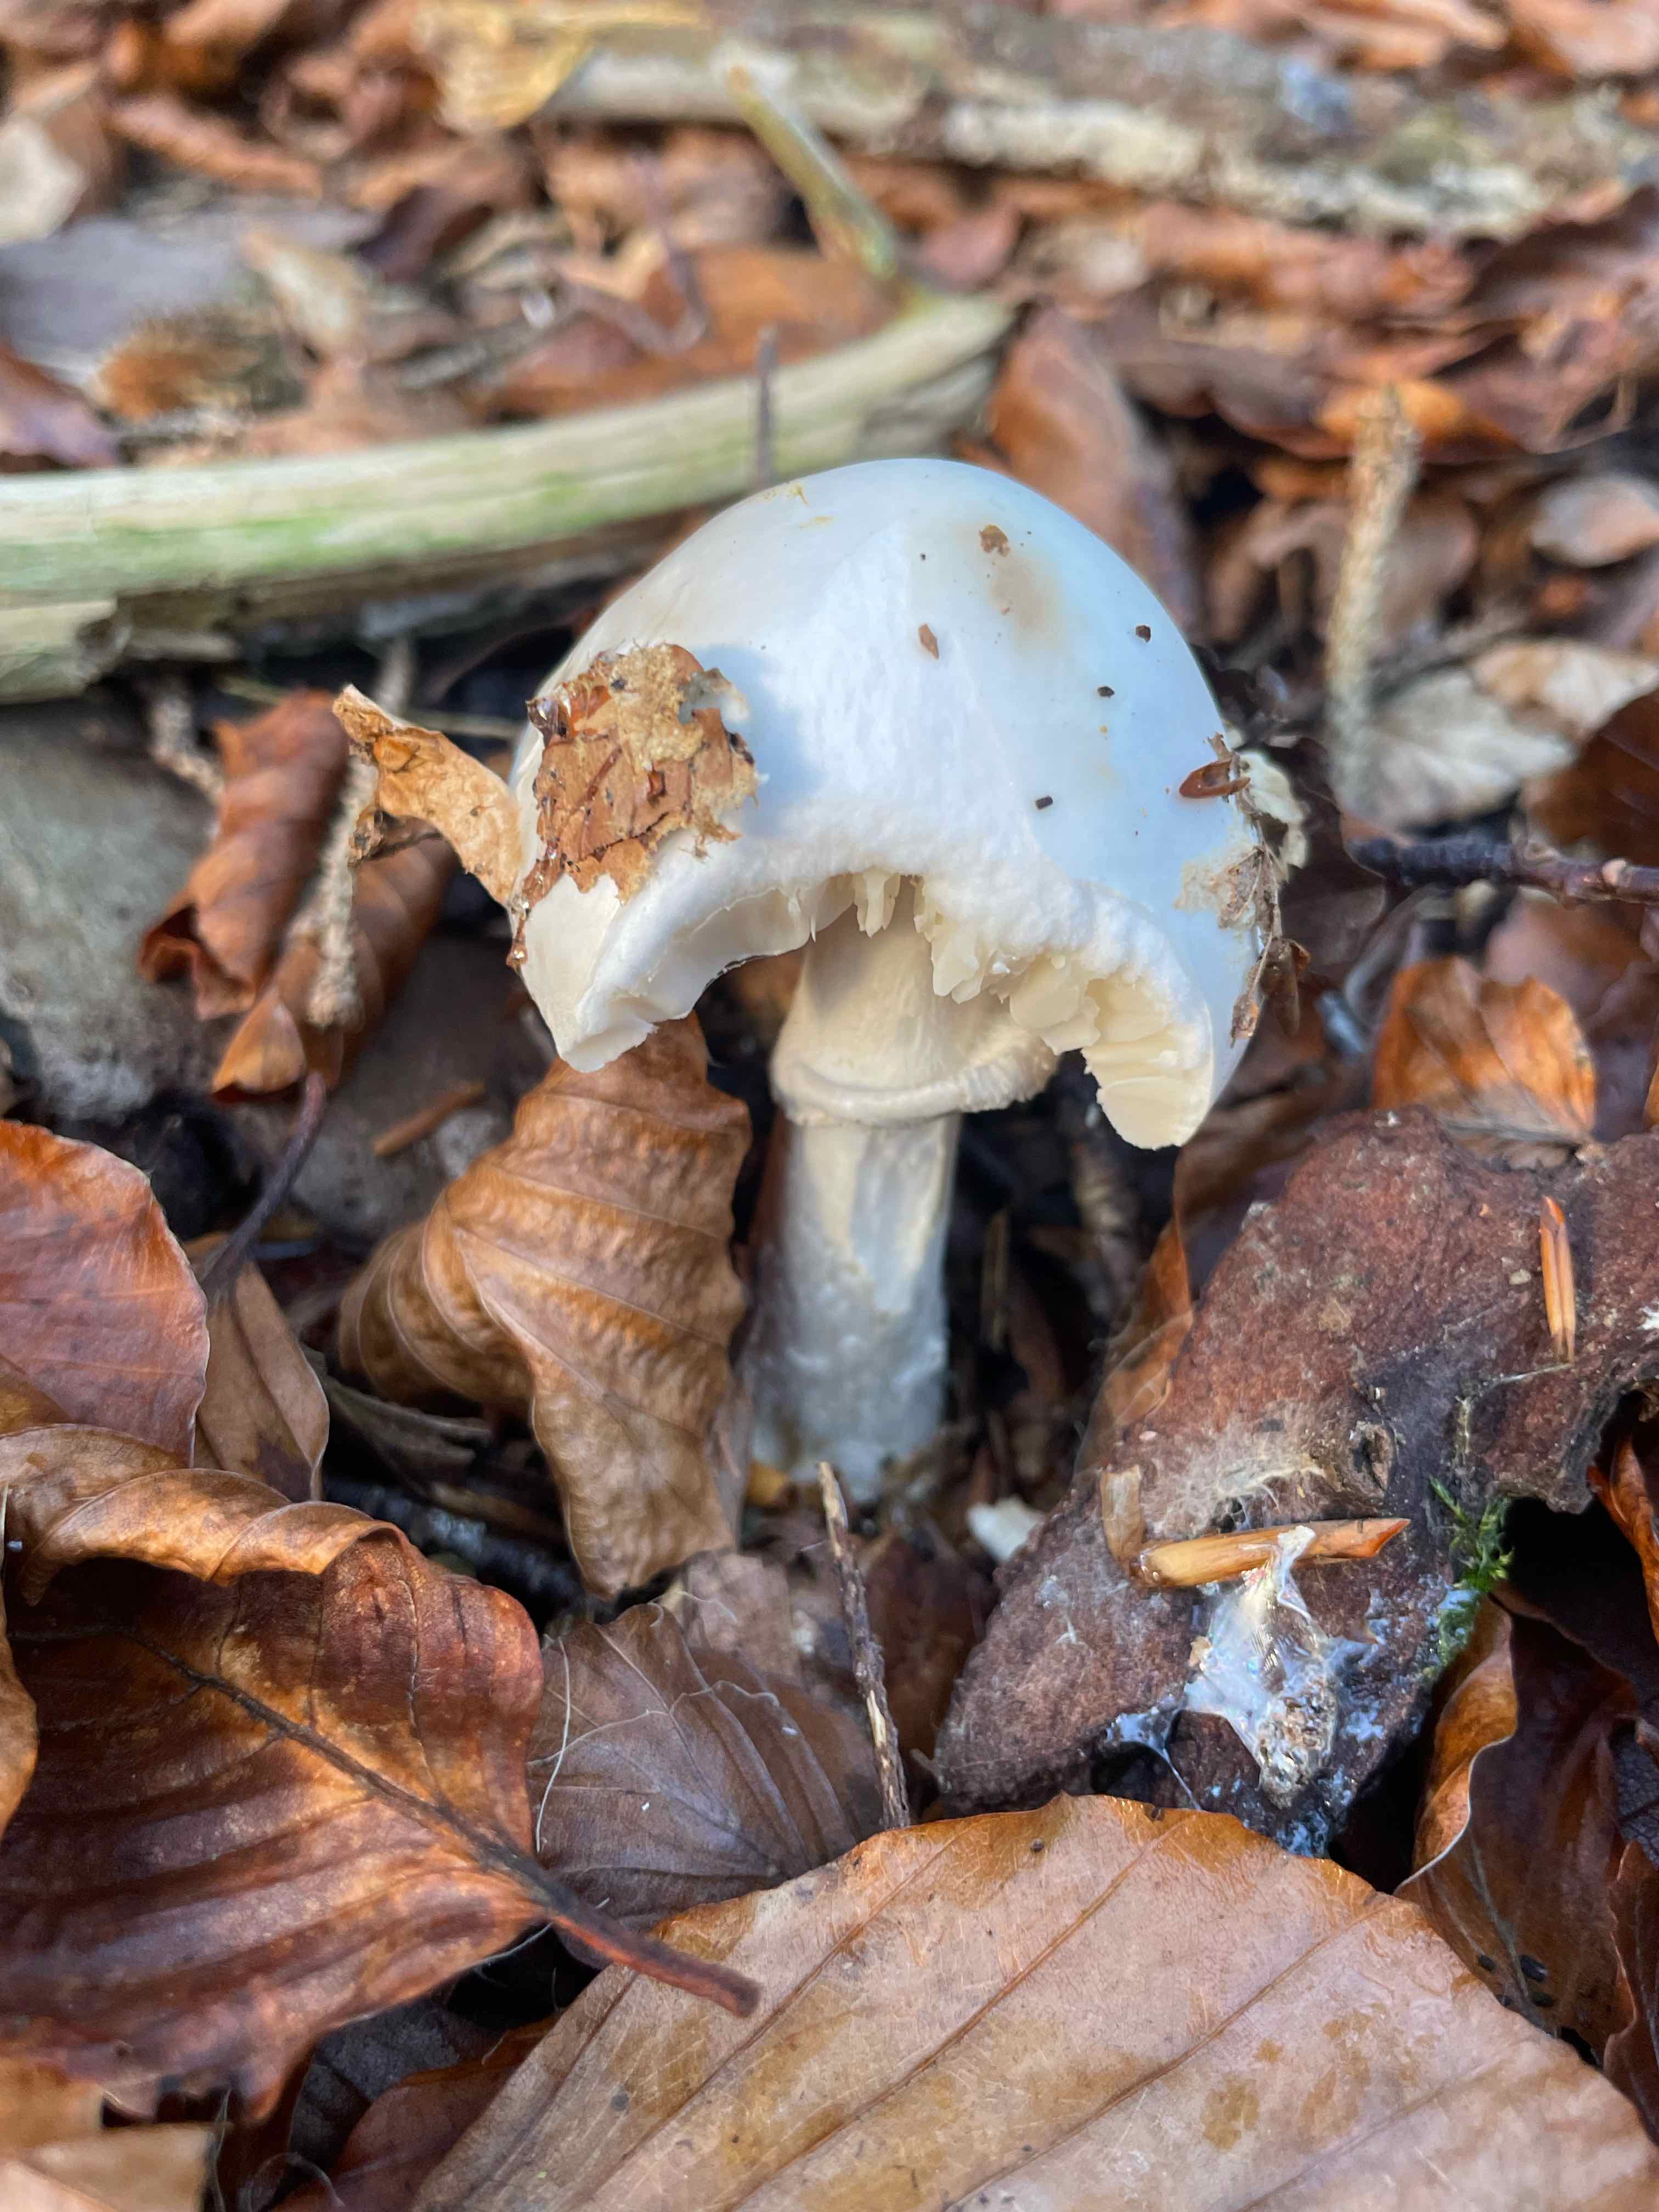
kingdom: Fungi
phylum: Basidiomycota
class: Agaricomycetes
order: Agaricales
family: Amanitaceae
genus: Amanita
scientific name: Amanita virosa
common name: snehvid fluesvamp
